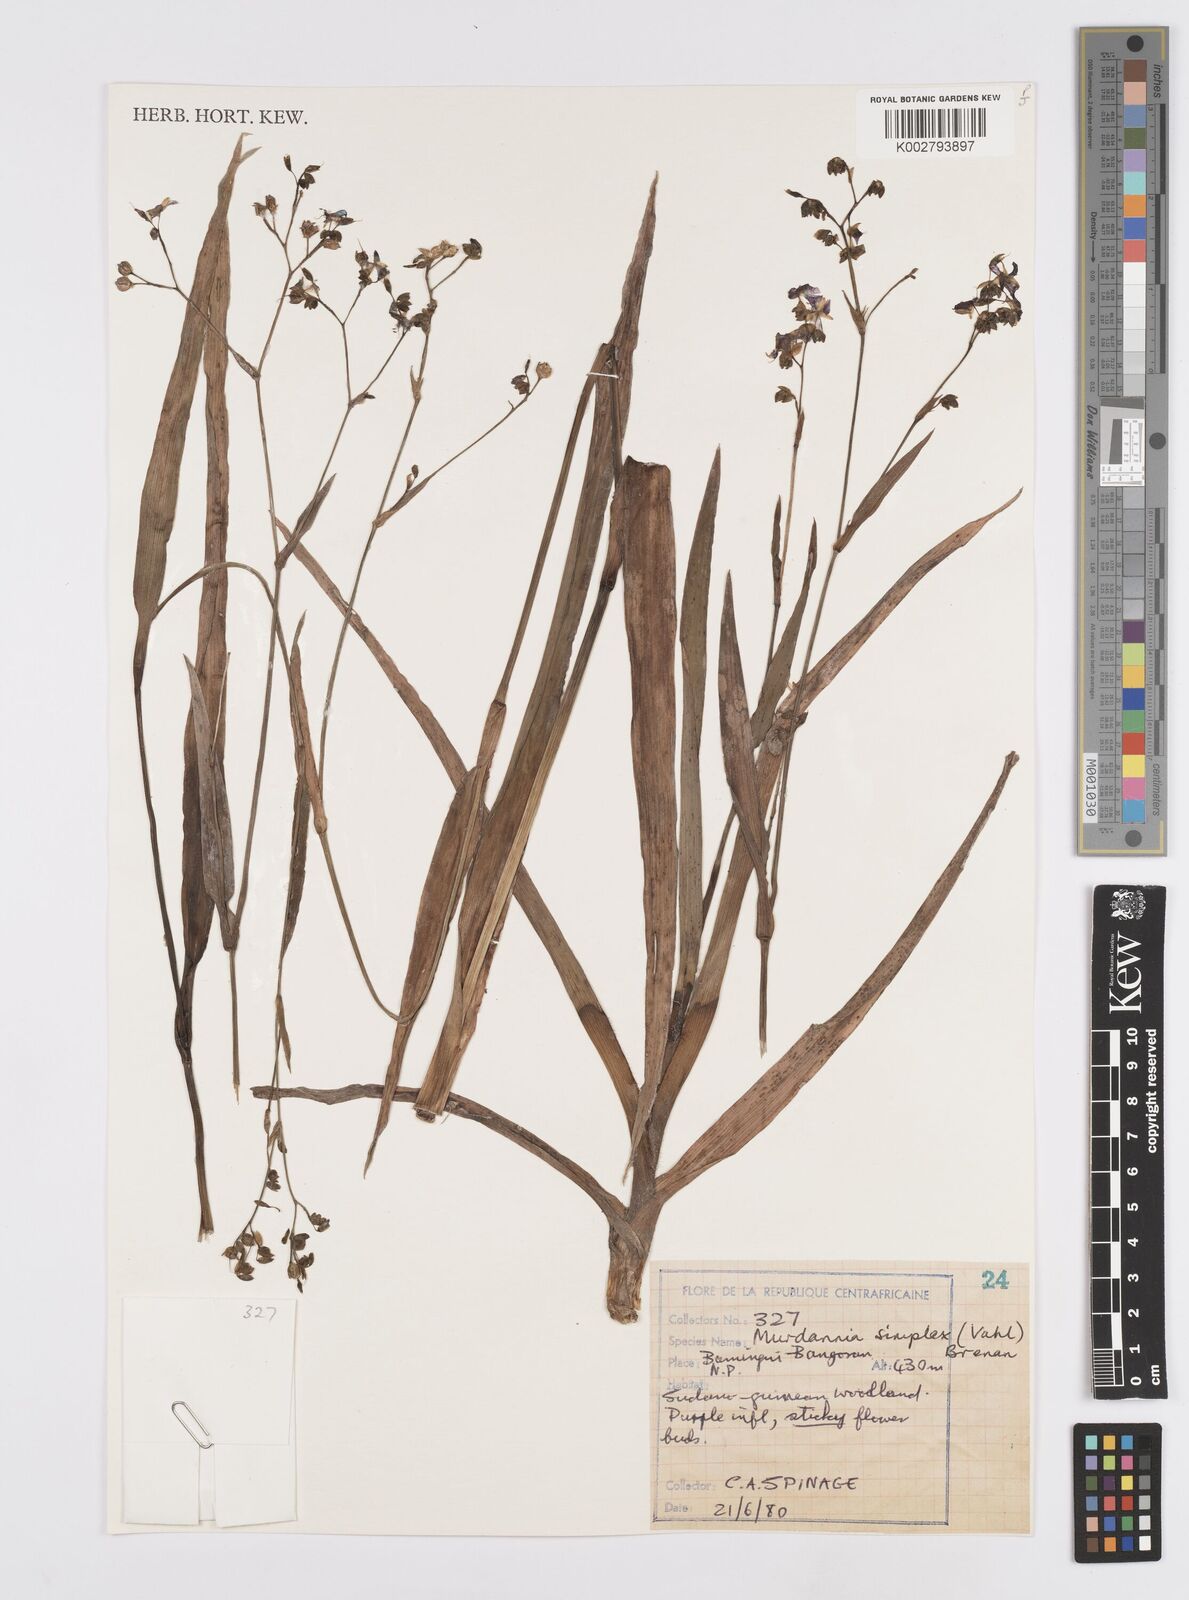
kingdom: Plantae
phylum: Tracheophyta
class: Liliopsida
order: Commelinales
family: Commelinaceae
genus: Murdannia
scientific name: Murdannia simplex
